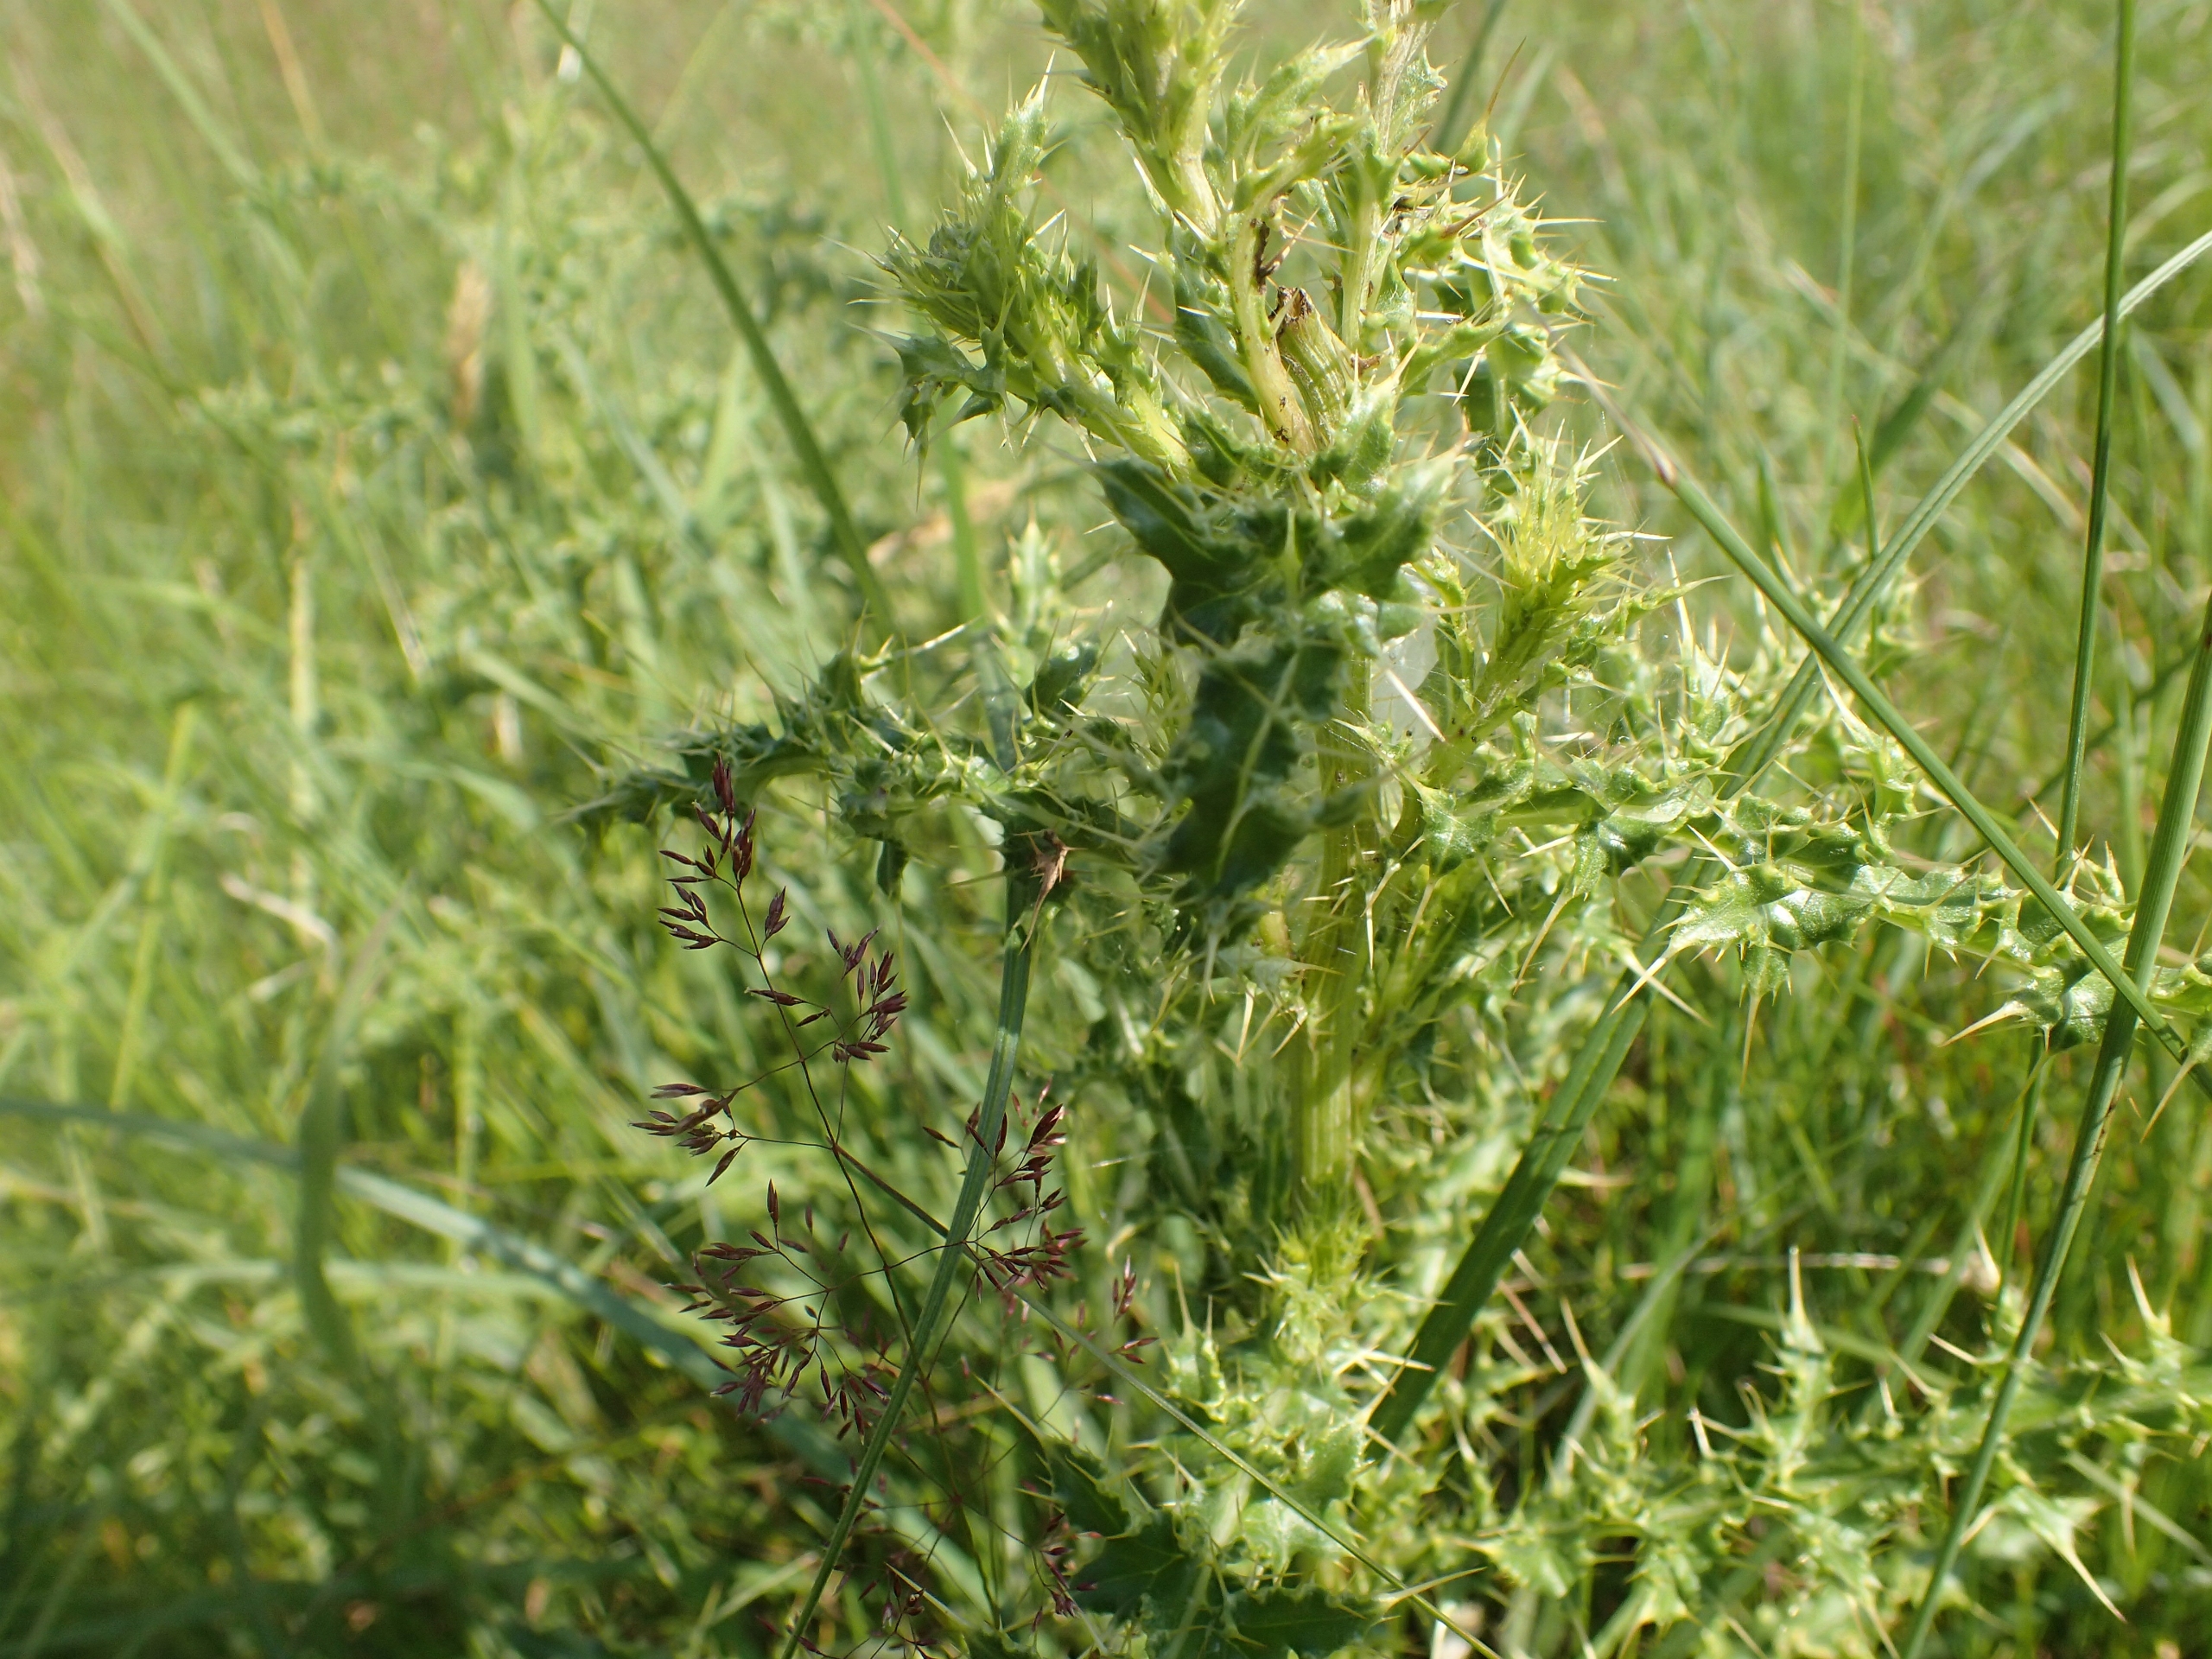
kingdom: Plantae
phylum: Tracheophyta
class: Magnoliopsida
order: Asterales
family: Asteraceae
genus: Cirsium
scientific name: Cirsium arvense
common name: Ager-tidsel
